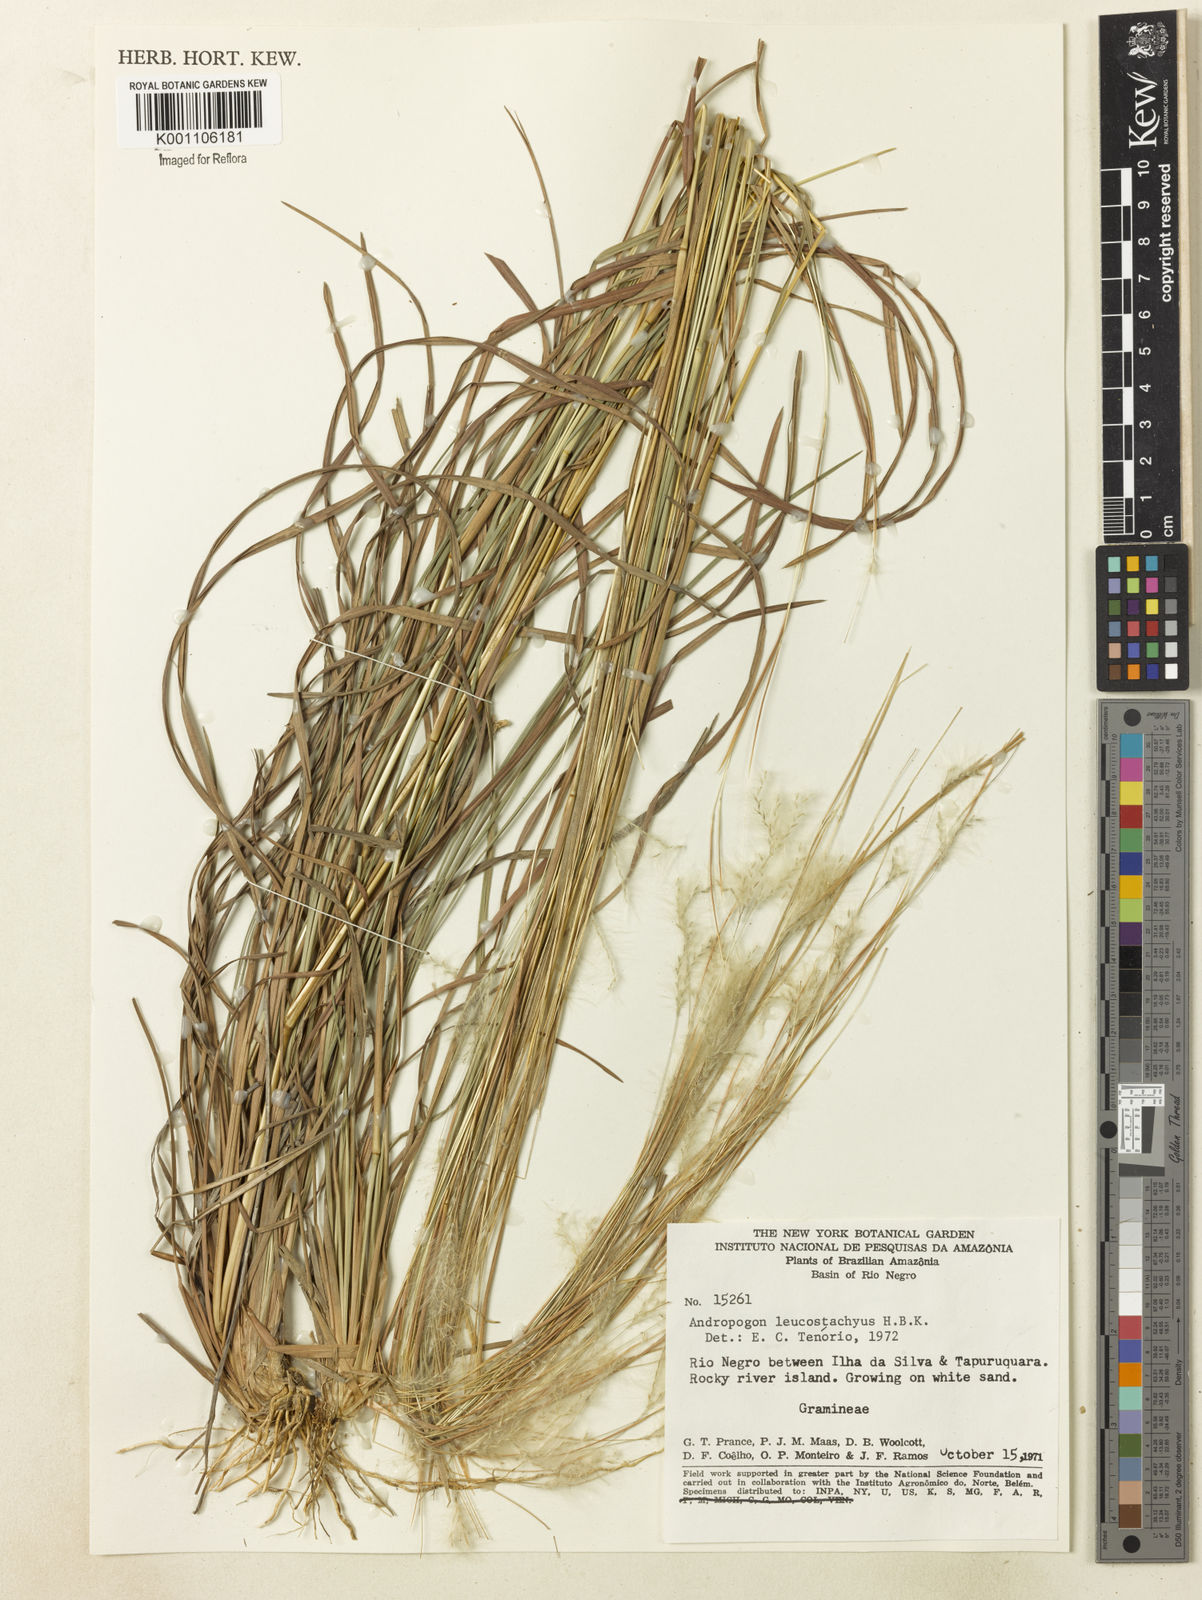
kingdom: Plantae
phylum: Tracheophyta
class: Liliopsida
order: Poales
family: Poaceae
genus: Andropogon
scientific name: Andropogon leucostachyus
